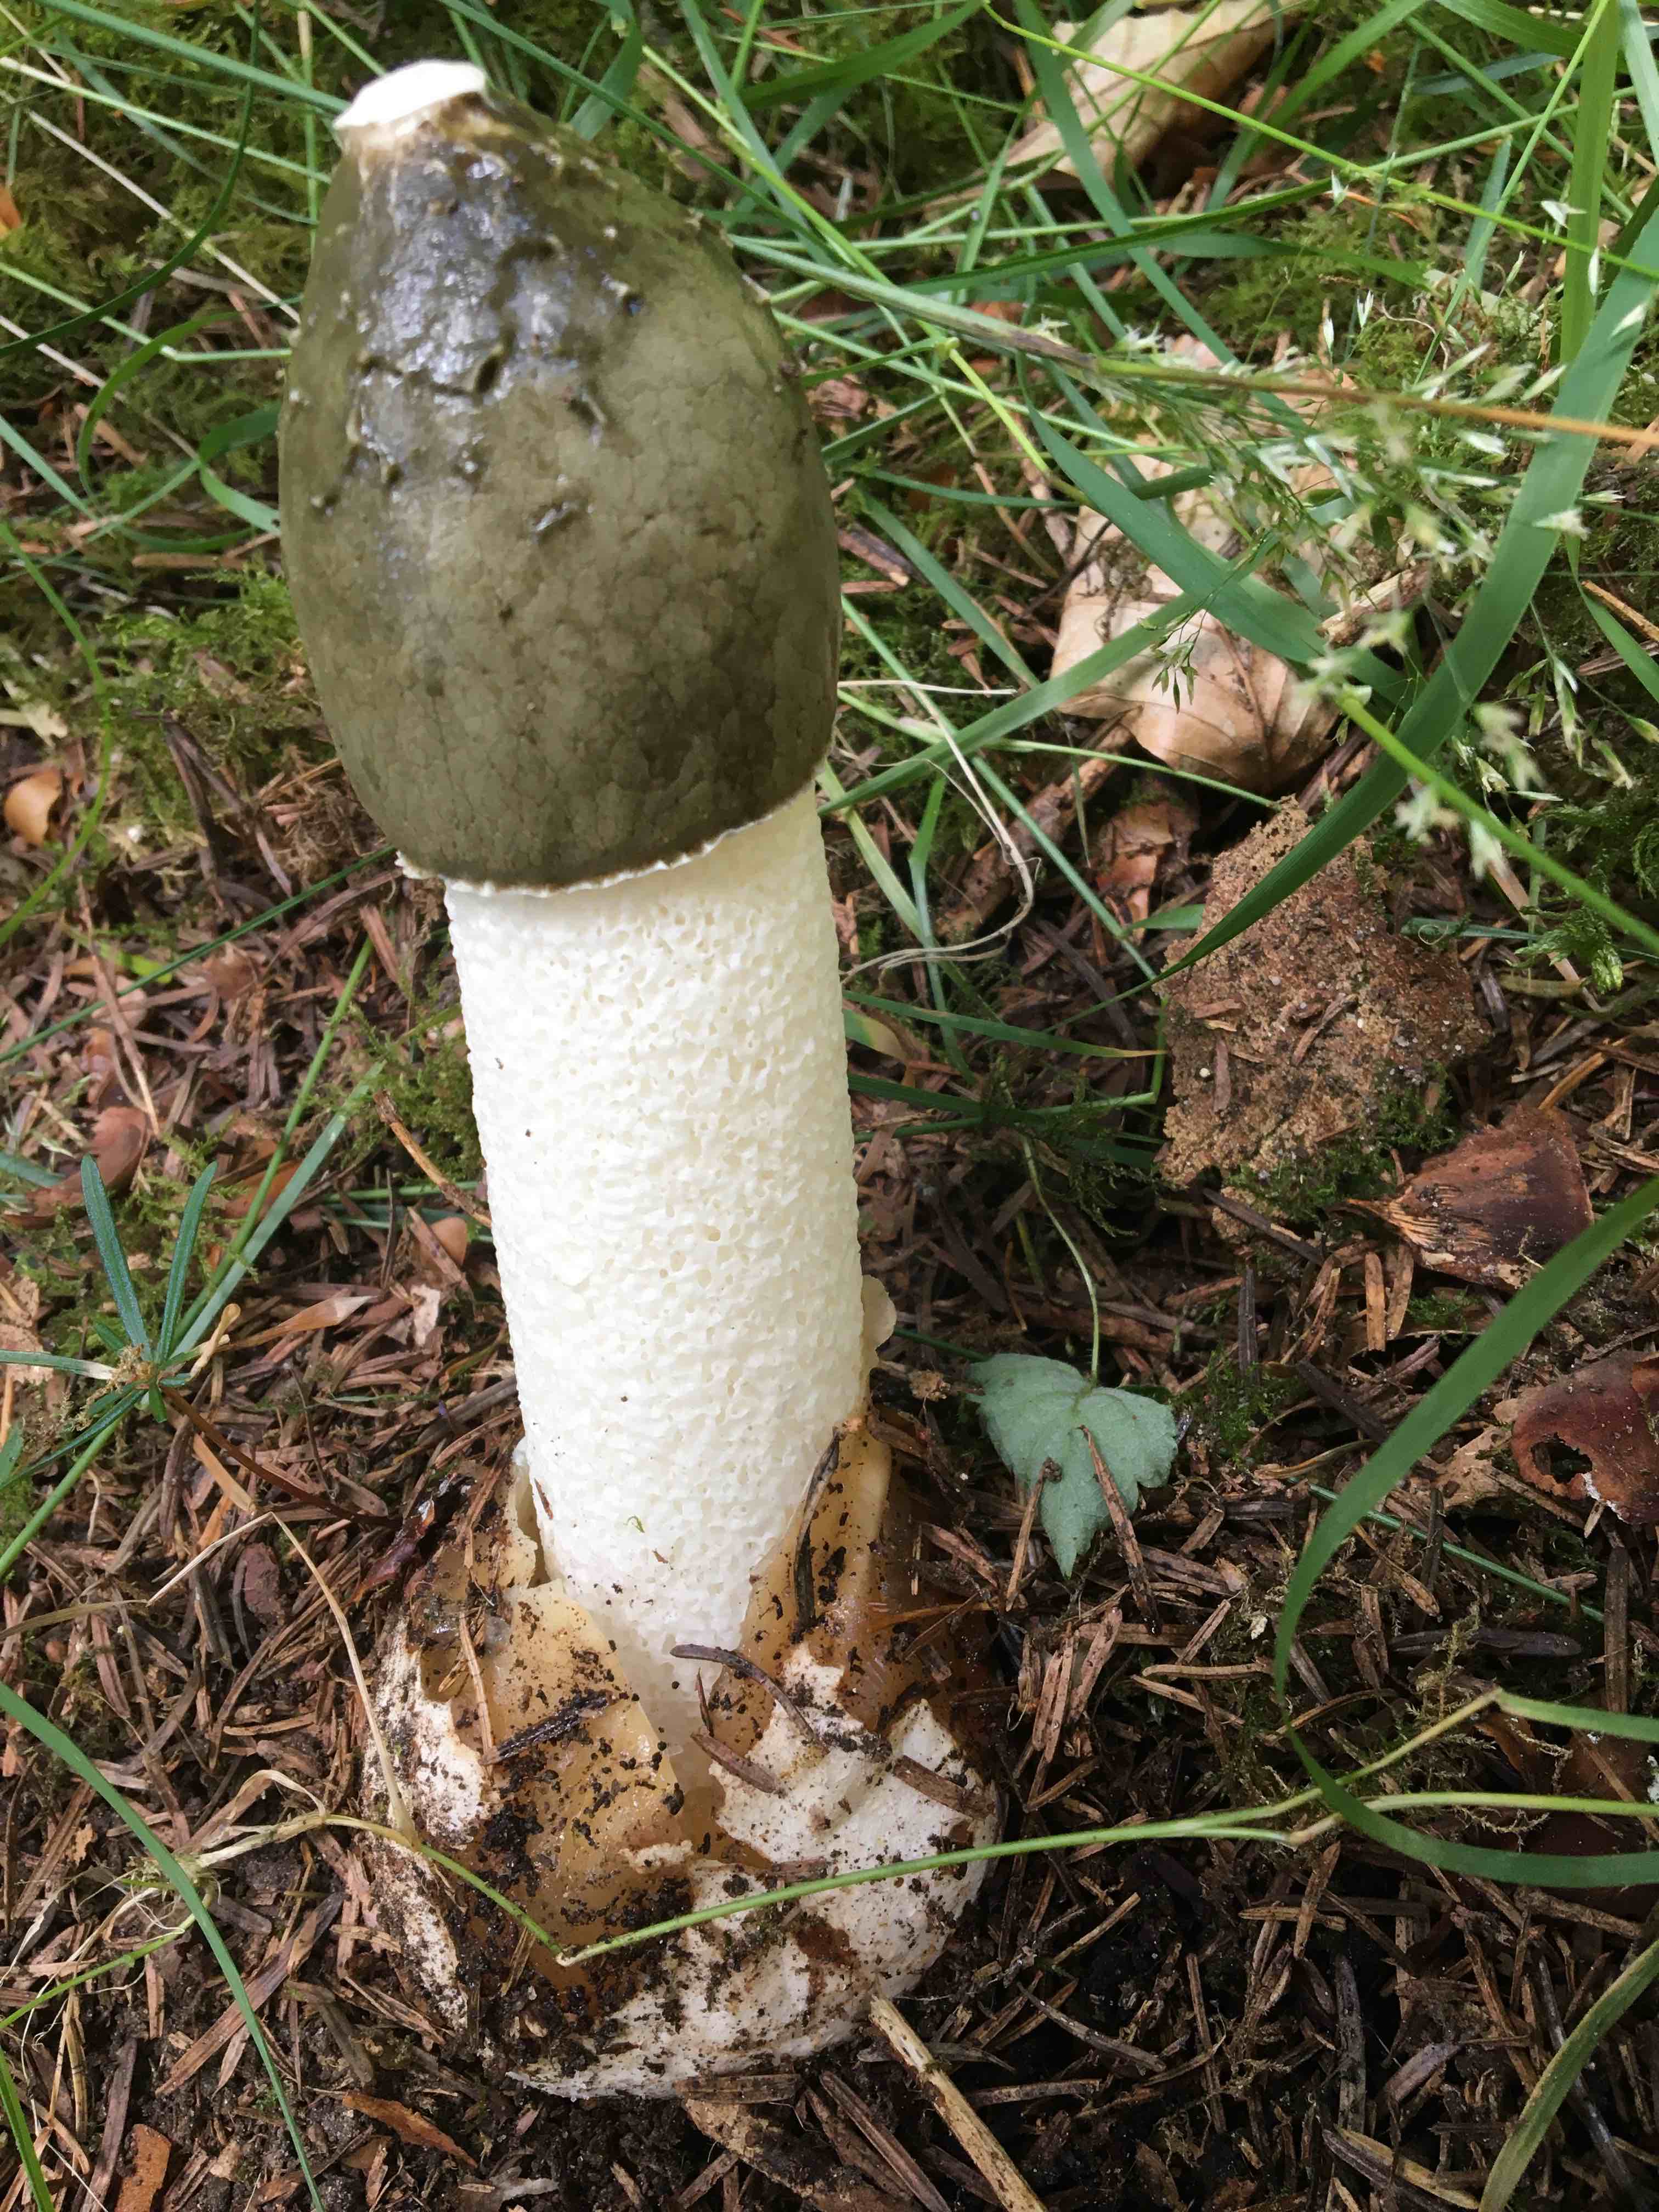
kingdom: Fungi
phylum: Basidiomycota
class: Agaricomycetes
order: Phallales
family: Phallaceae
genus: Phallus
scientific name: Phallus impudicus
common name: almindelig stinksvamp
